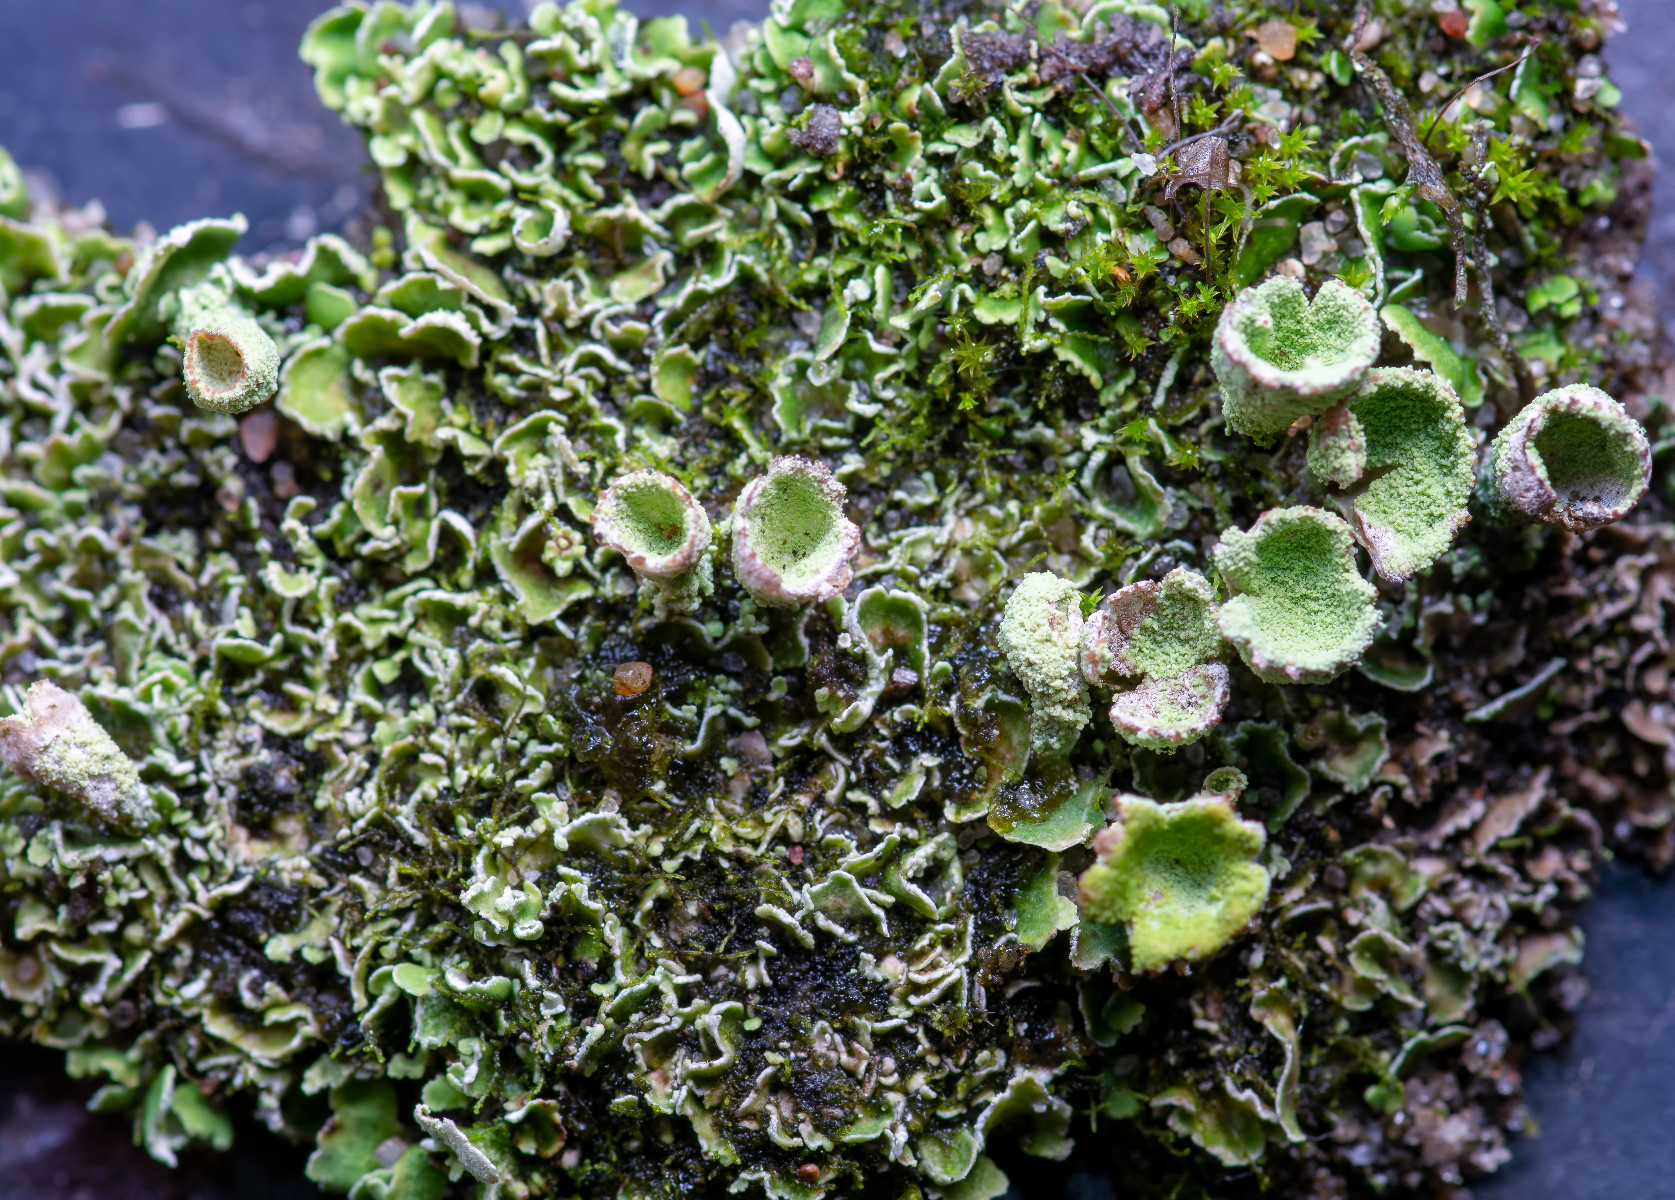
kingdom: Fungi
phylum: Ascomycota
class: Lecanoromycetes
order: Lecanorales
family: Cladoniaceae
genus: Cladonia
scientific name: Cladonia humilis
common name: lav bægerlav
